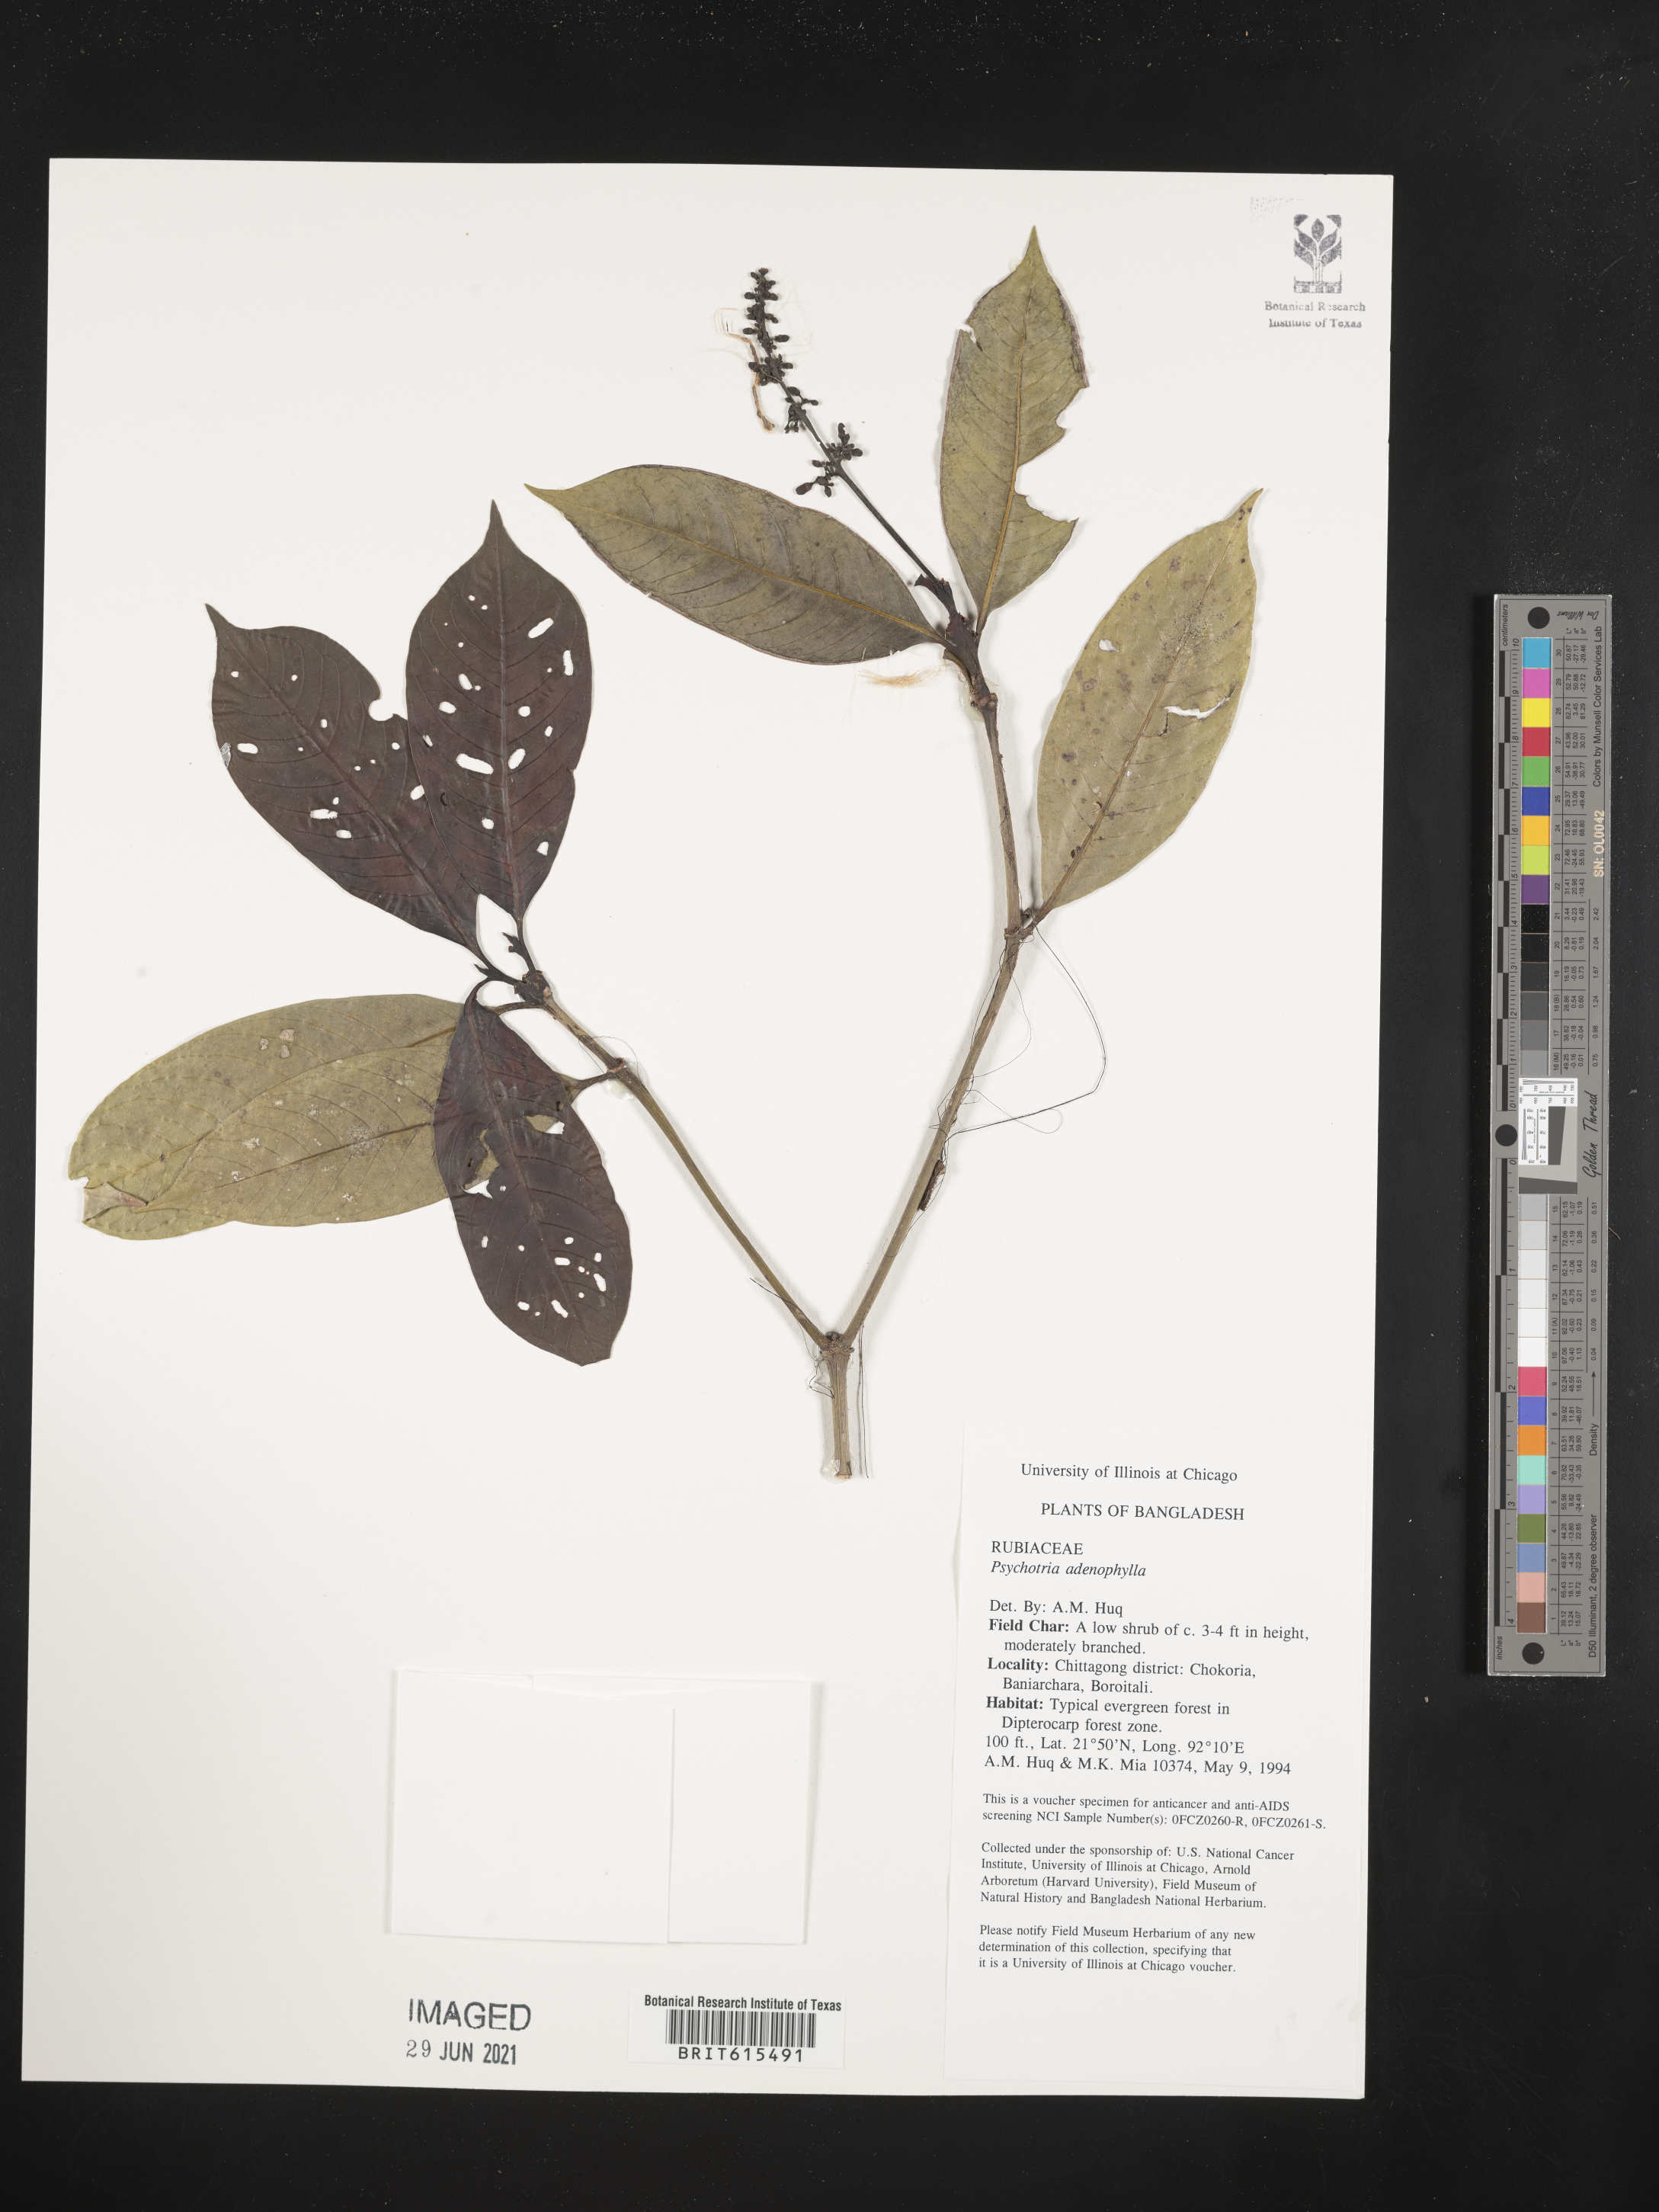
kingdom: Plantae
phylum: Tracheophyta
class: Magnoliopsida
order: Gentianales
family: Rubiaceae
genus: Psychotria
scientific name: Psychotria adenophylla
